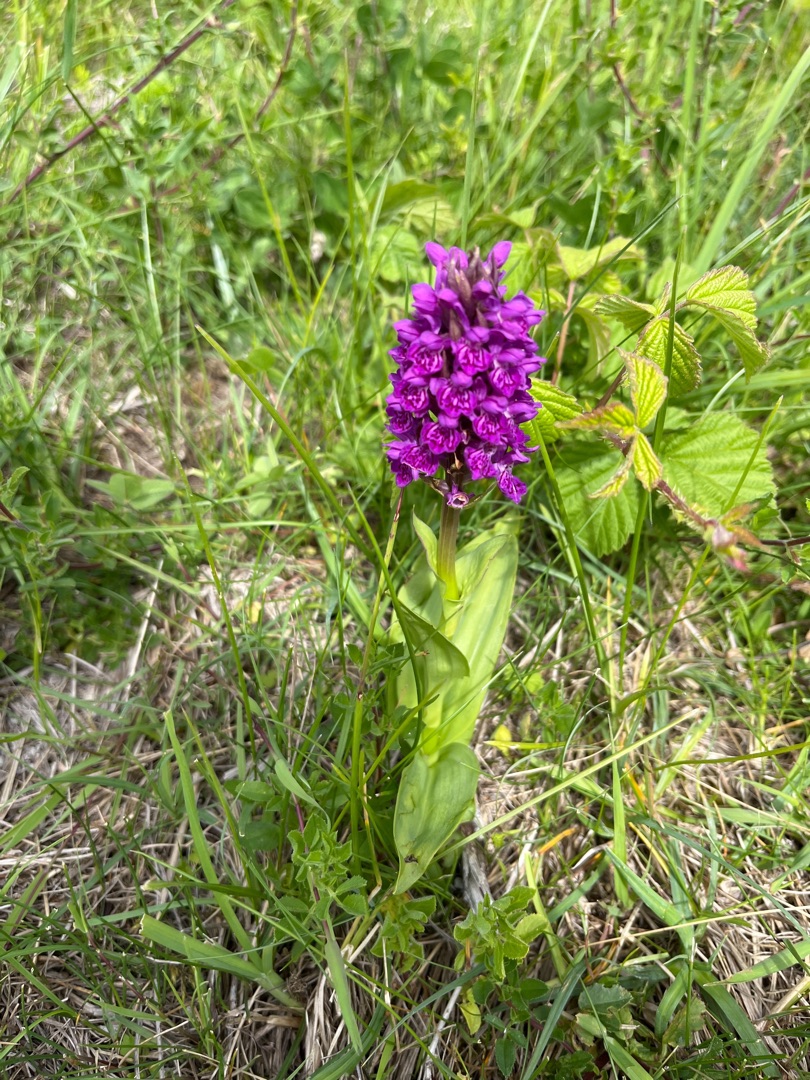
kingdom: Plantae
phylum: Tracheophyta
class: Liliopsida
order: Asparagales
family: Orchidaceae
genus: Dactylorhiza
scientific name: Dactylorhiza majalis
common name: Purpur-gøgeurt
